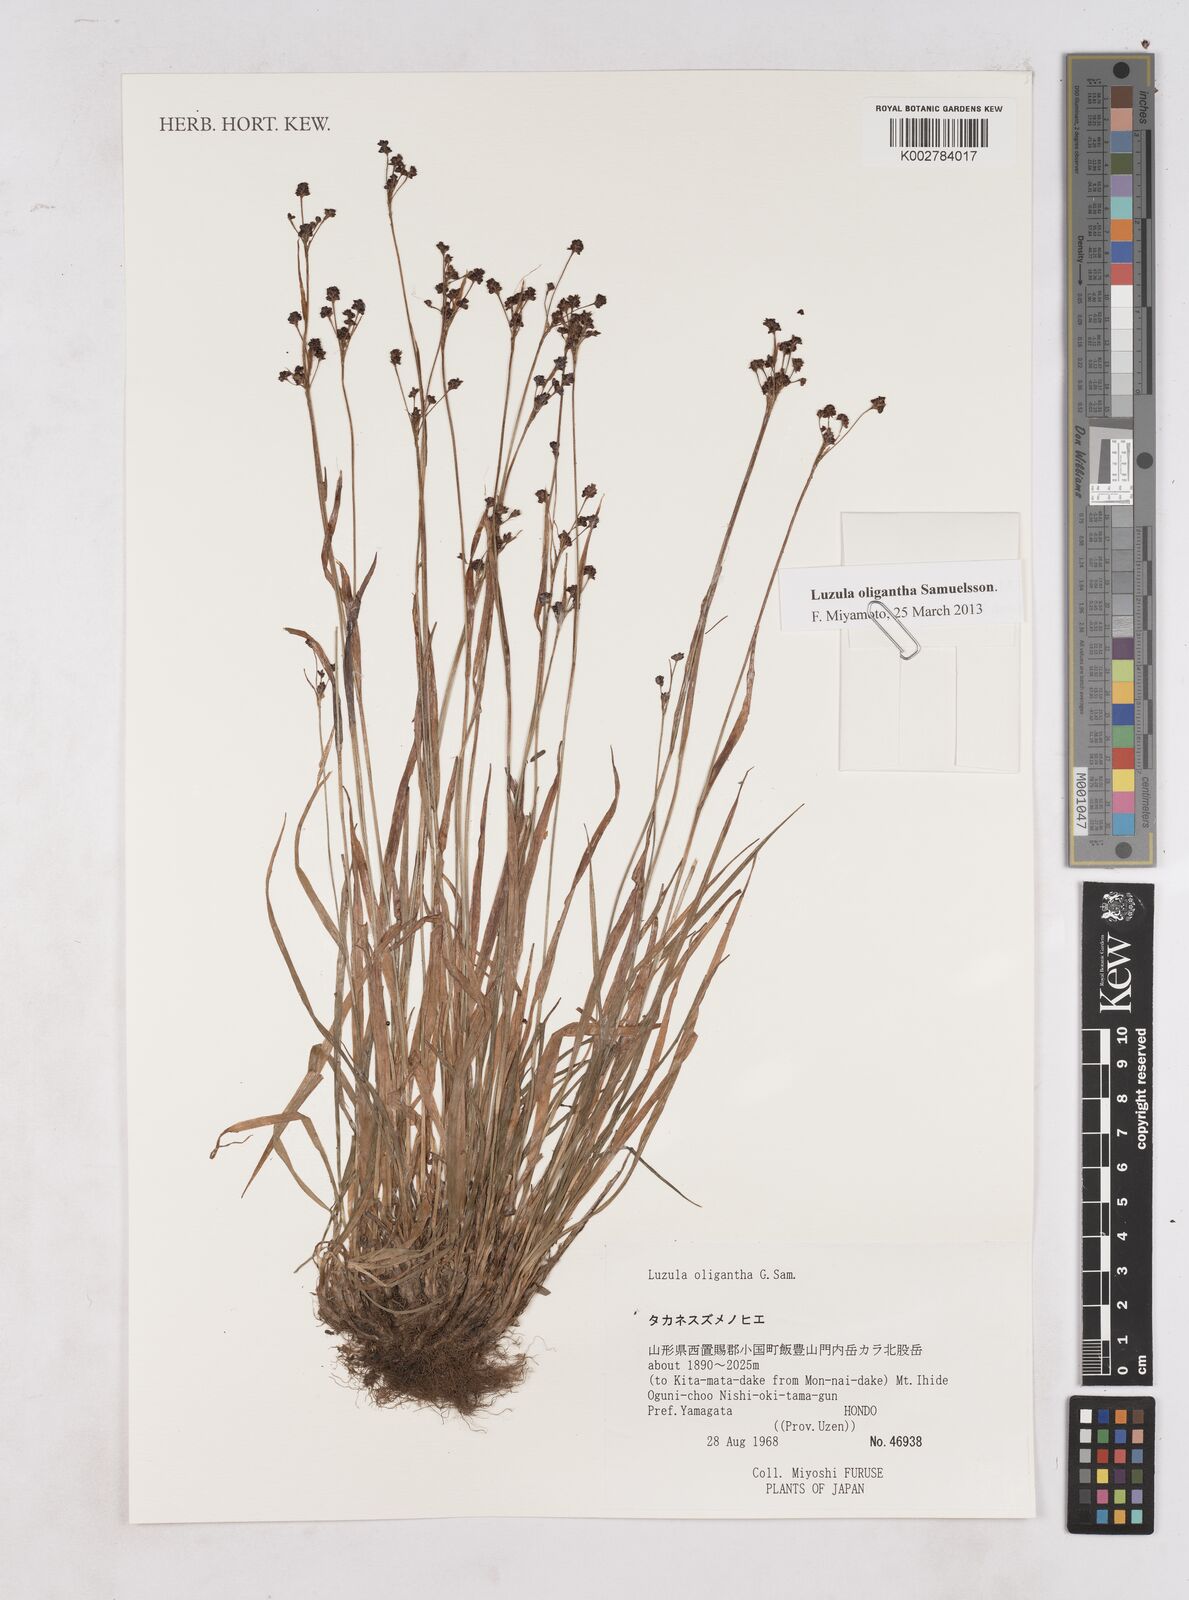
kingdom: Plantae
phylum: Tracheophyta
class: Liliopsida
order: Poales
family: Juncaceae
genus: Luzula
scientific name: Luzula oligantha
